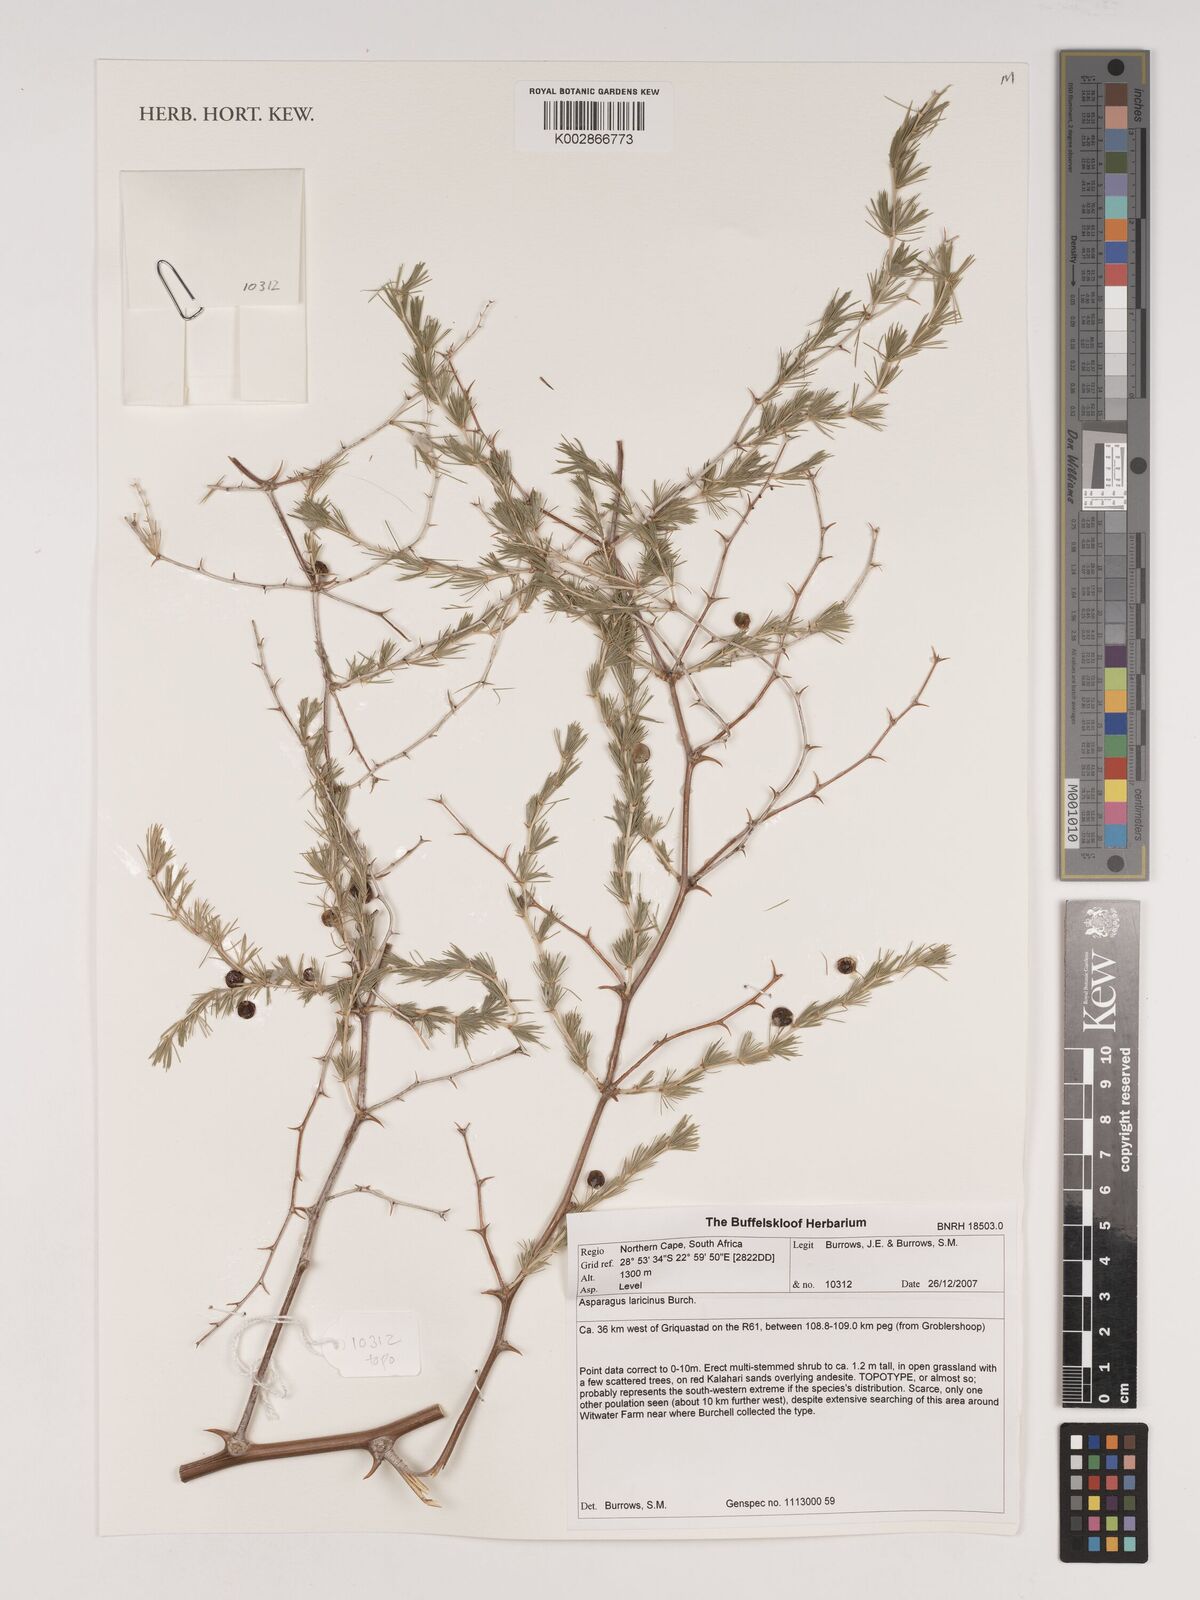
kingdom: Plantae
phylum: Tracheophyta
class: Liliopsida
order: Asparagales
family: Asparagaceae
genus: Asparagus
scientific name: Asparagus laricinus
